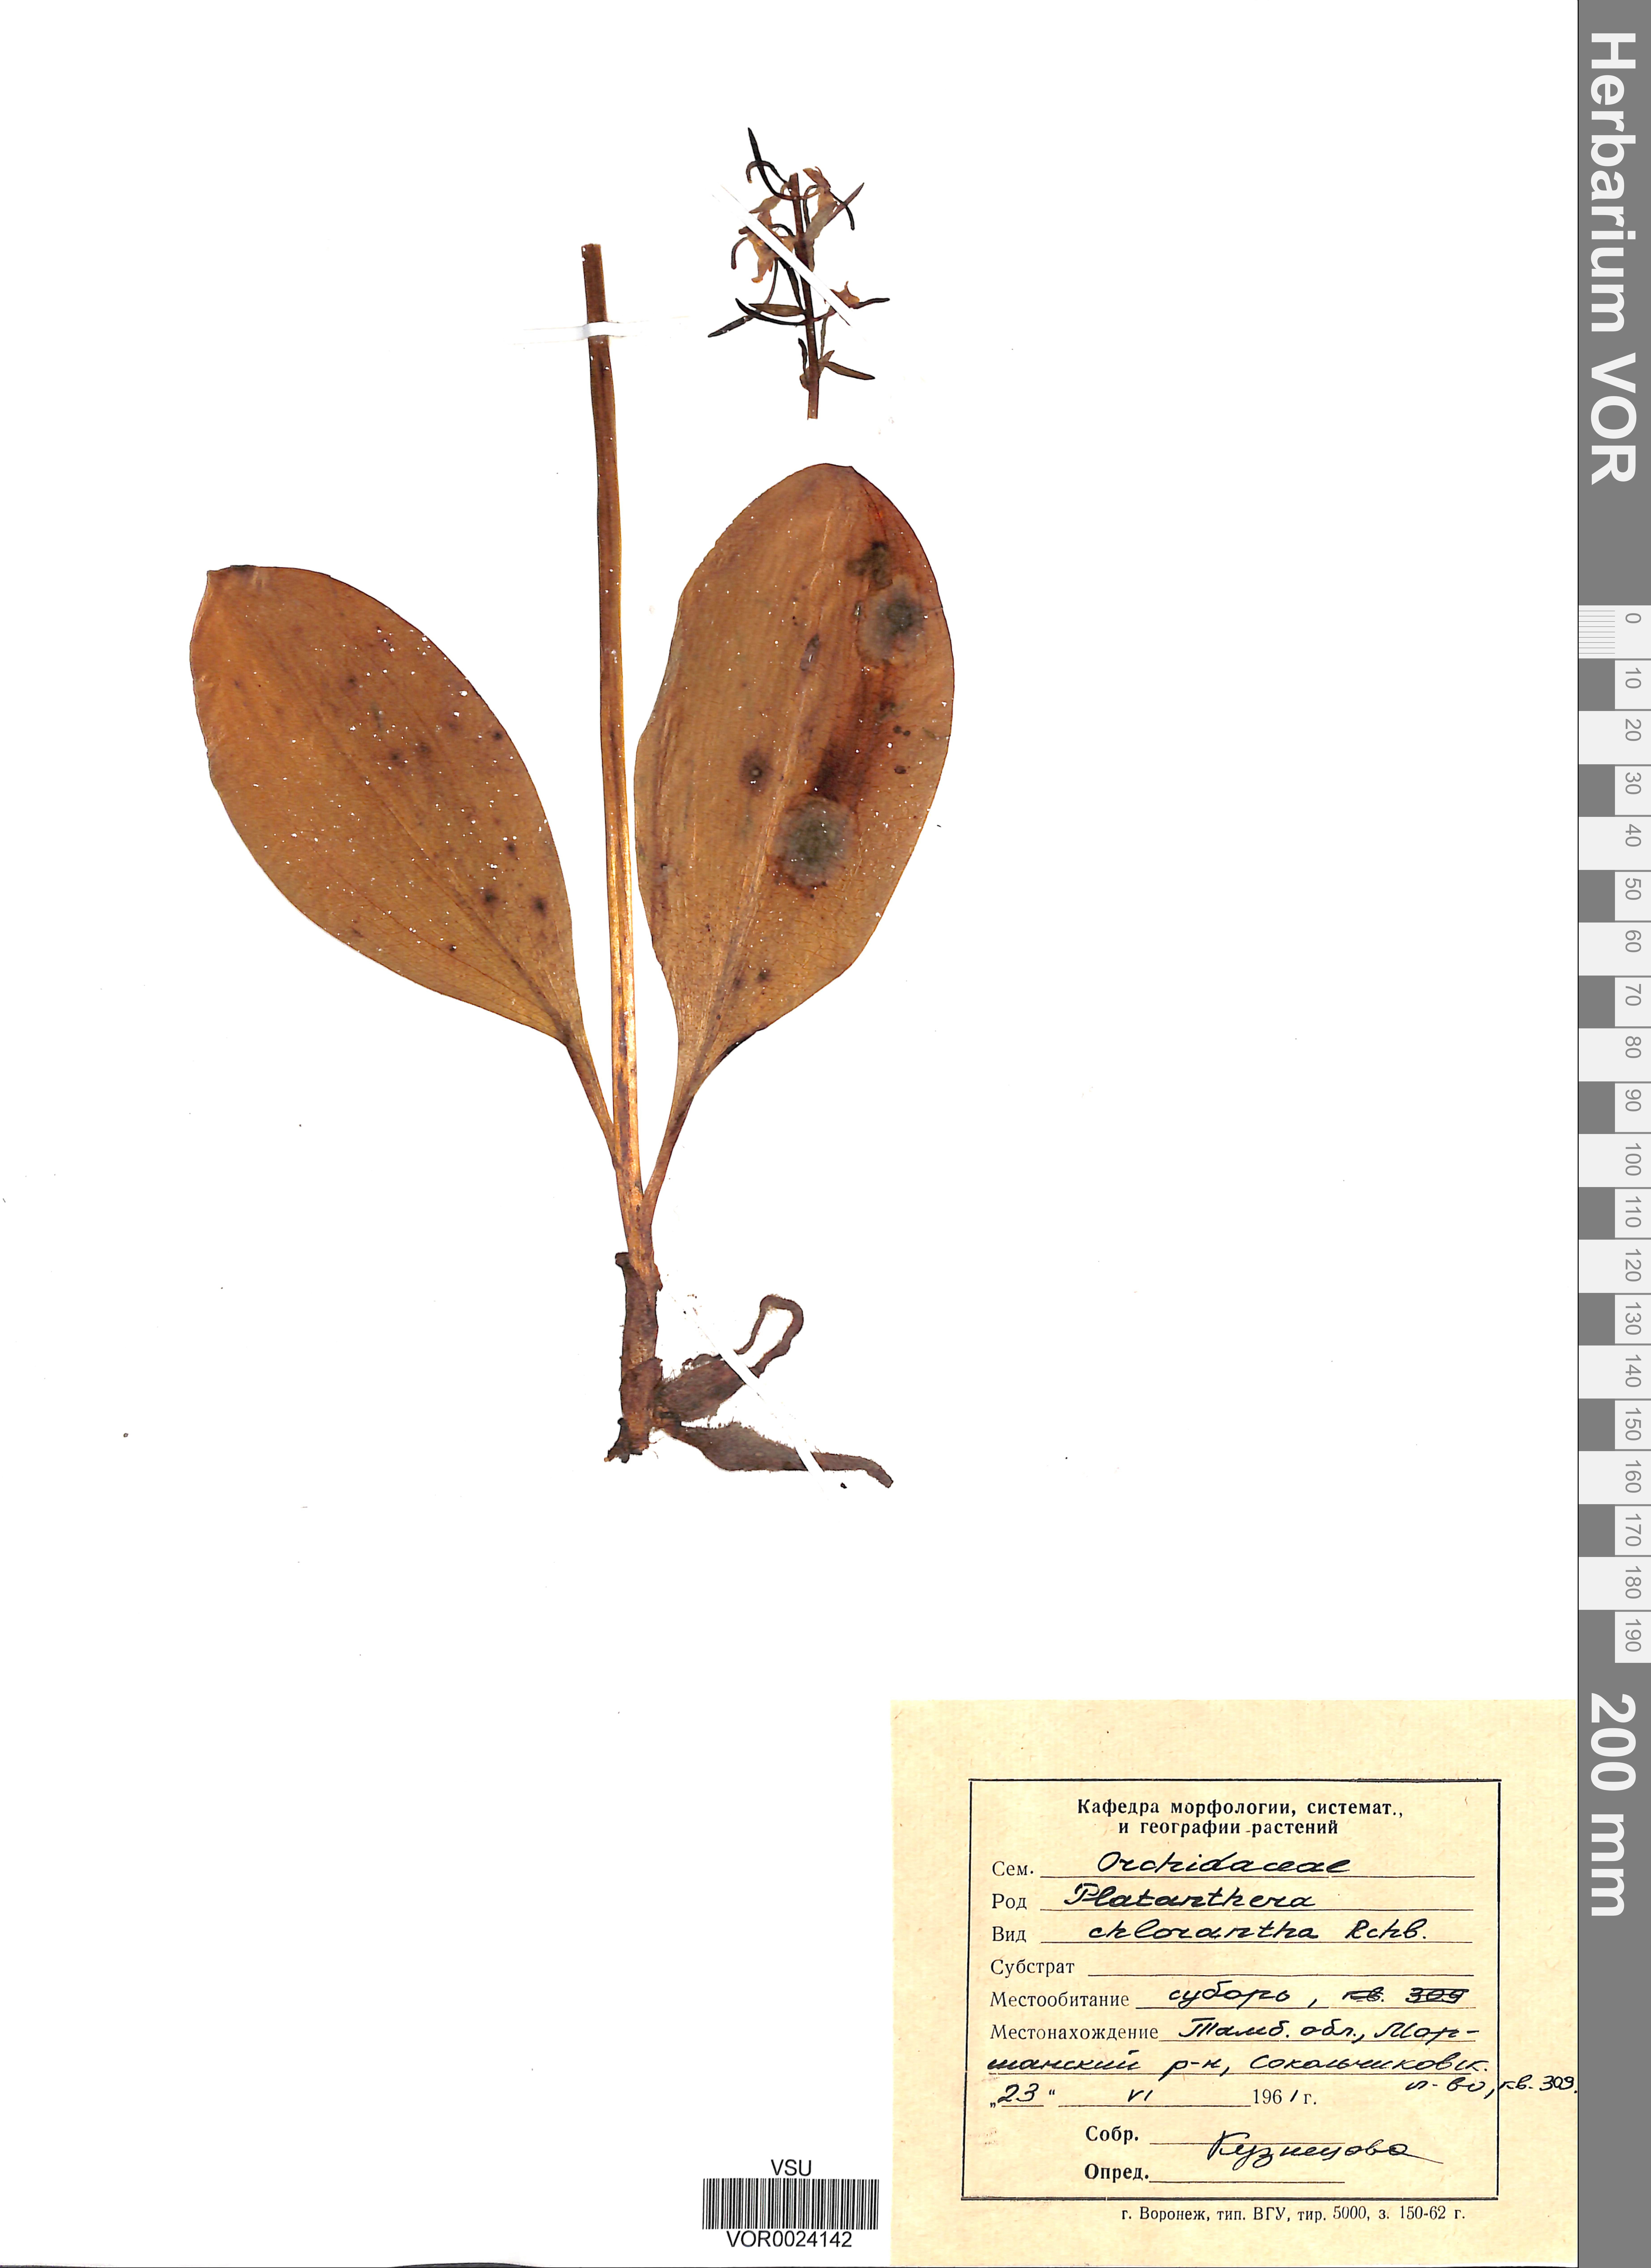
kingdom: Plantae
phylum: Tracheophyta
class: Liliopsida
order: Asparagales
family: Orchidaceae
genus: Platanthera
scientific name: Platanthera chlorantha
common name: Greater butterfly-orchid
